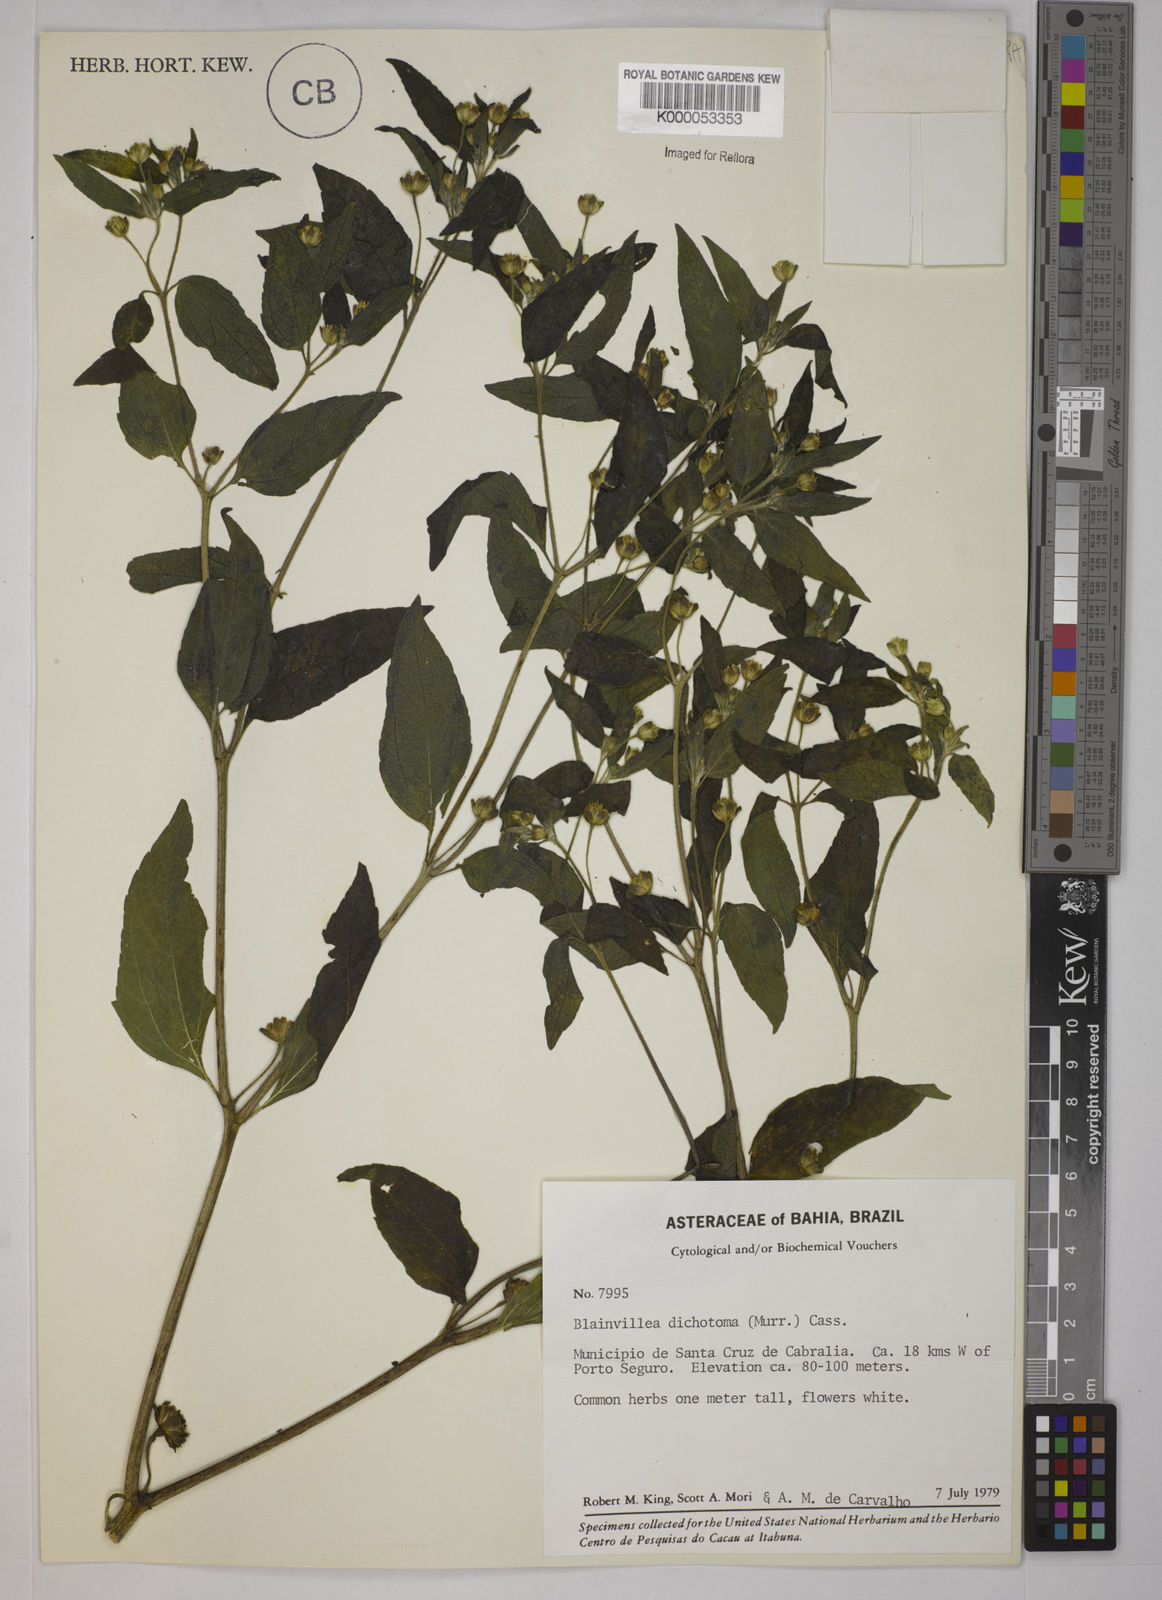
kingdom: Plantae
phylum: Tracheophyta
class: Magnoliopsida
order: Asterales
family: Asteraceae
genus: Blainvillea
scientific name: Blainvillea acmella
